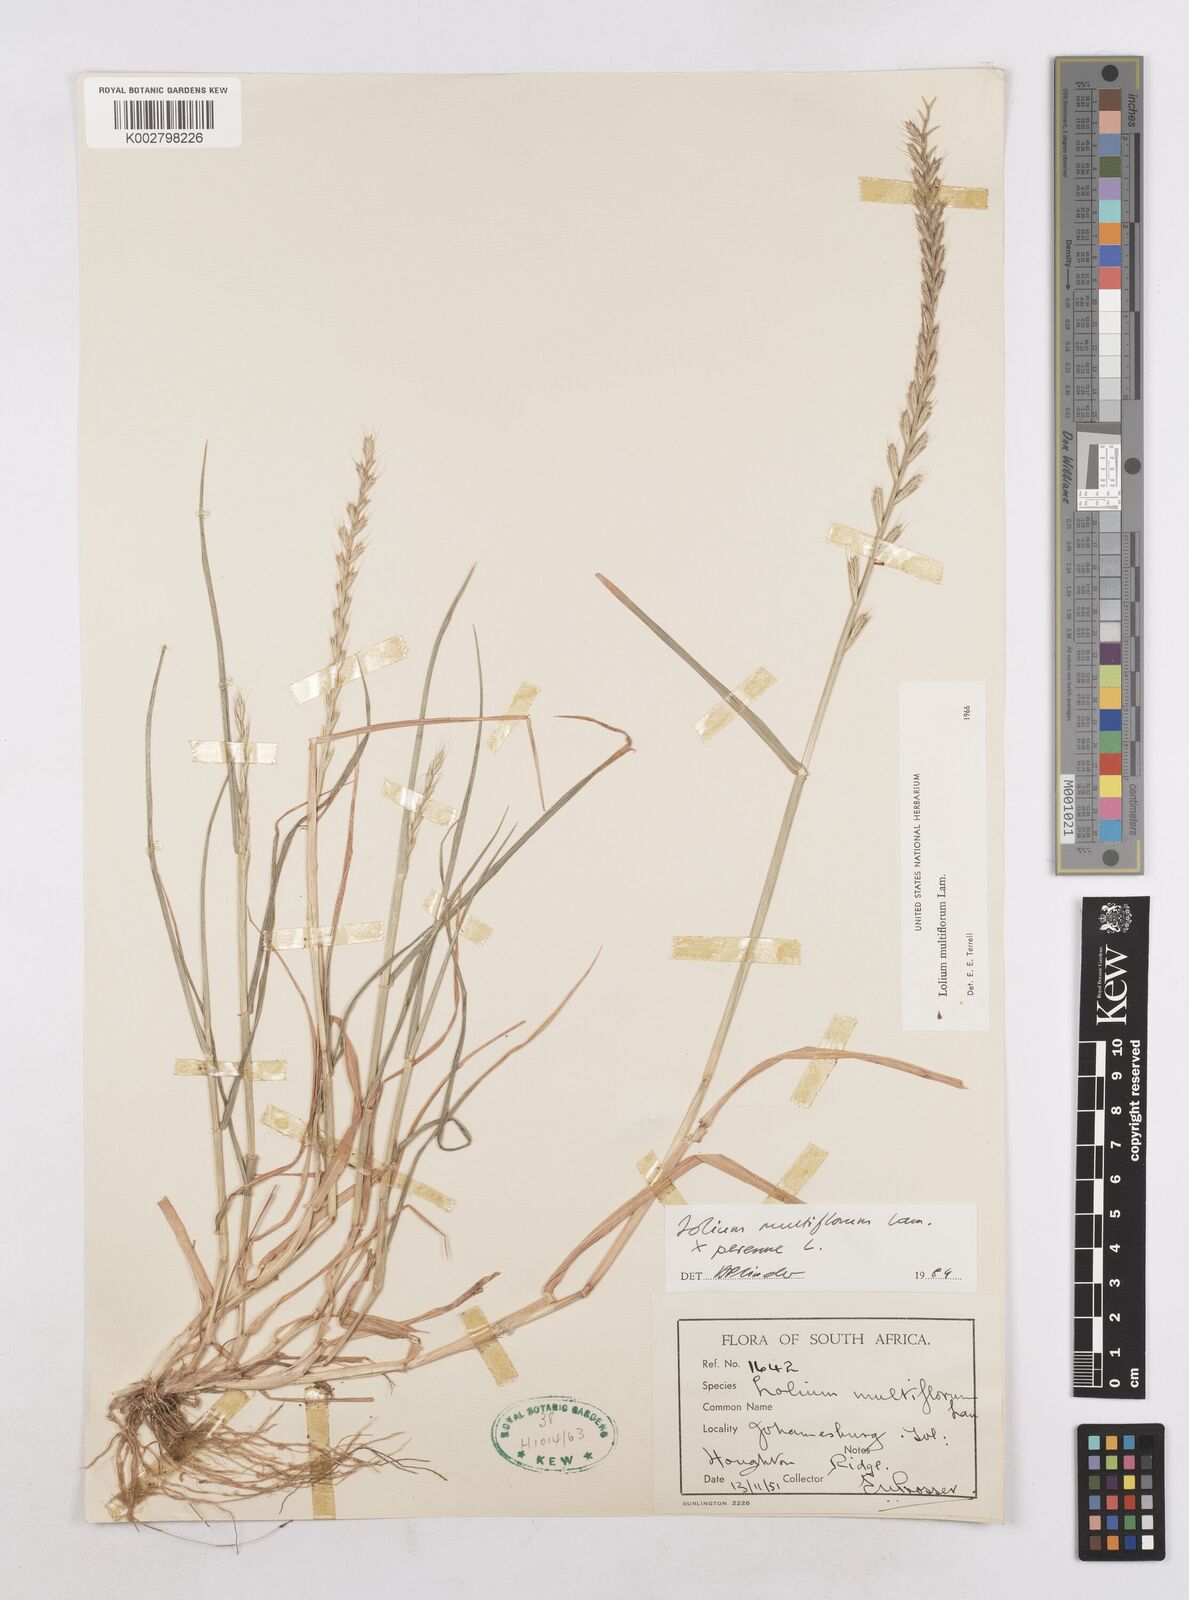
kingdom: Plantae
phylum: Tracheophyta
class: Liliopsida
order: Poales
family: Poaceae
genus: Lolium
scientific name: Lolium multiflorum
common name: Annual ryegrass
